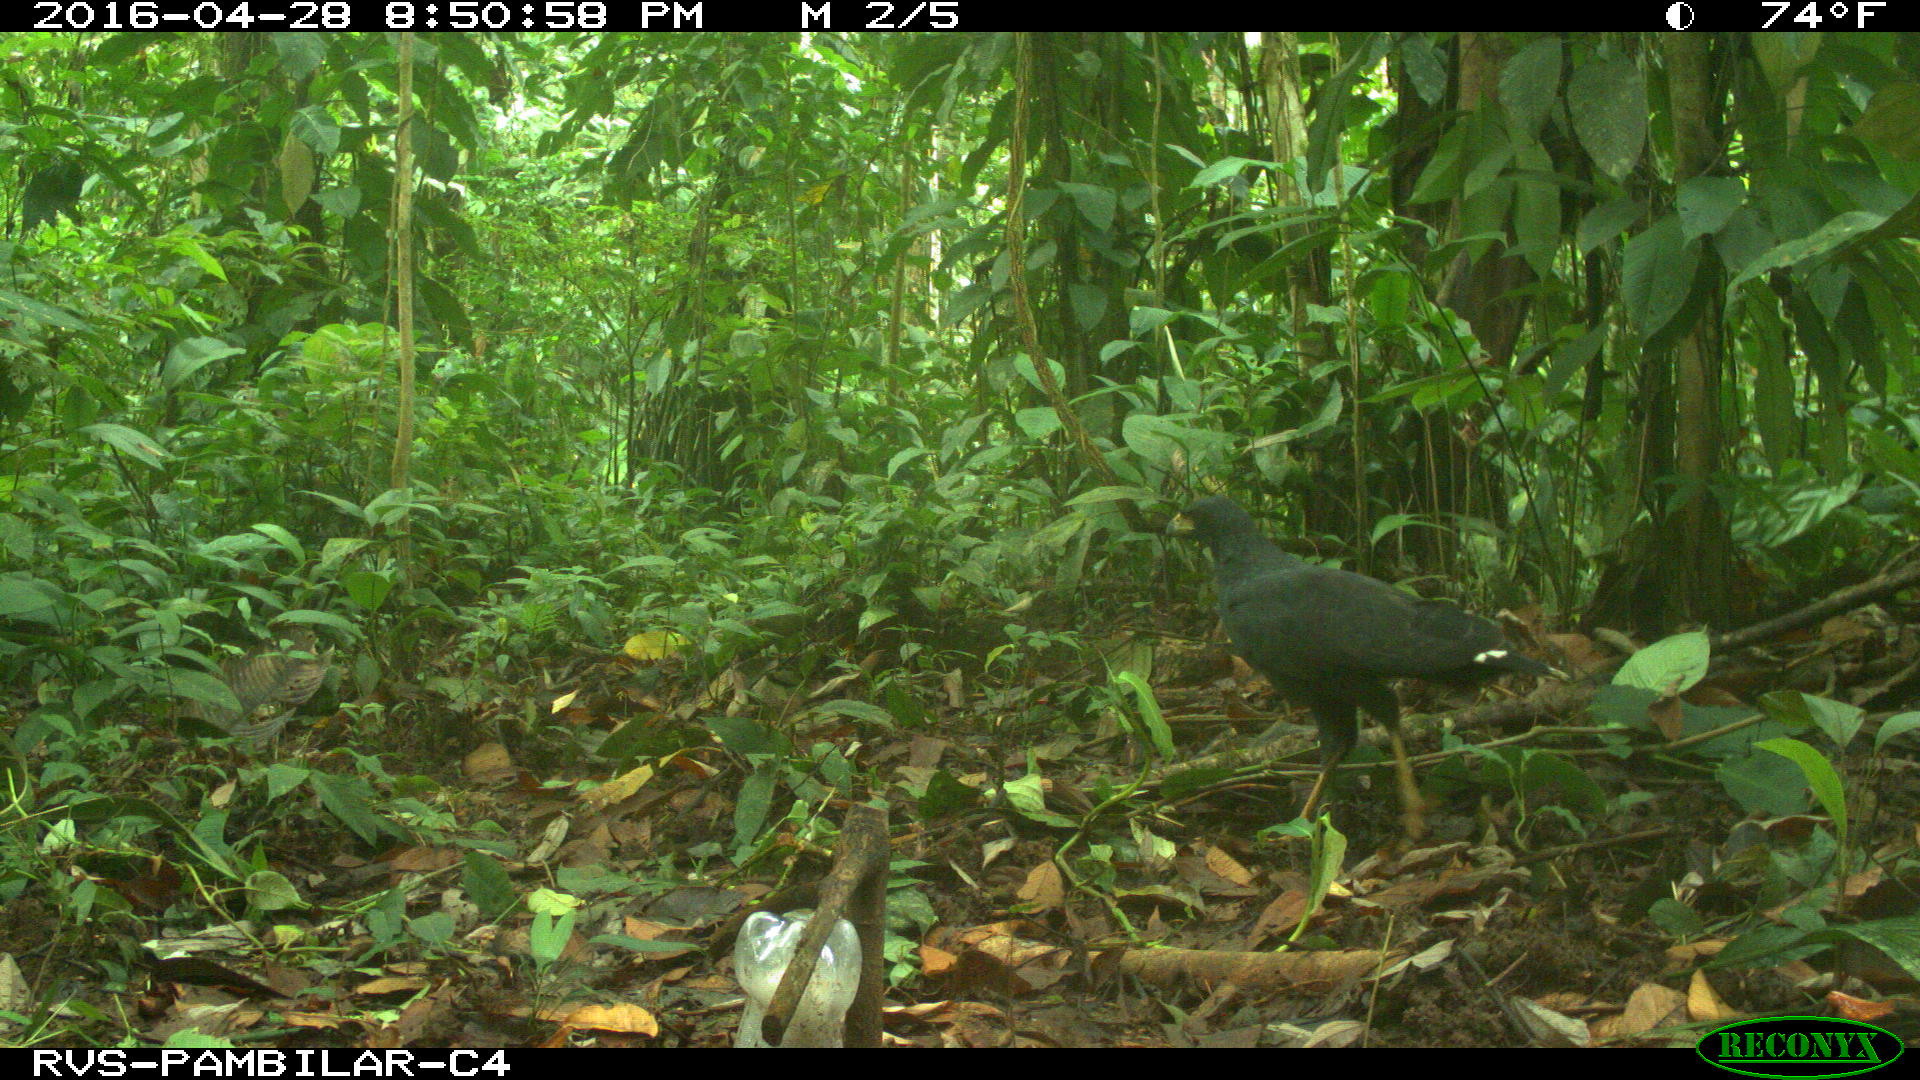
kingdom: Animalia
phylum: Chordata
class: Aves
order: Accipitriformes
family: Accipitridae
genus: Buteogallus
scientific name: Buteogallus urubitinga
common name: Great black hawk
